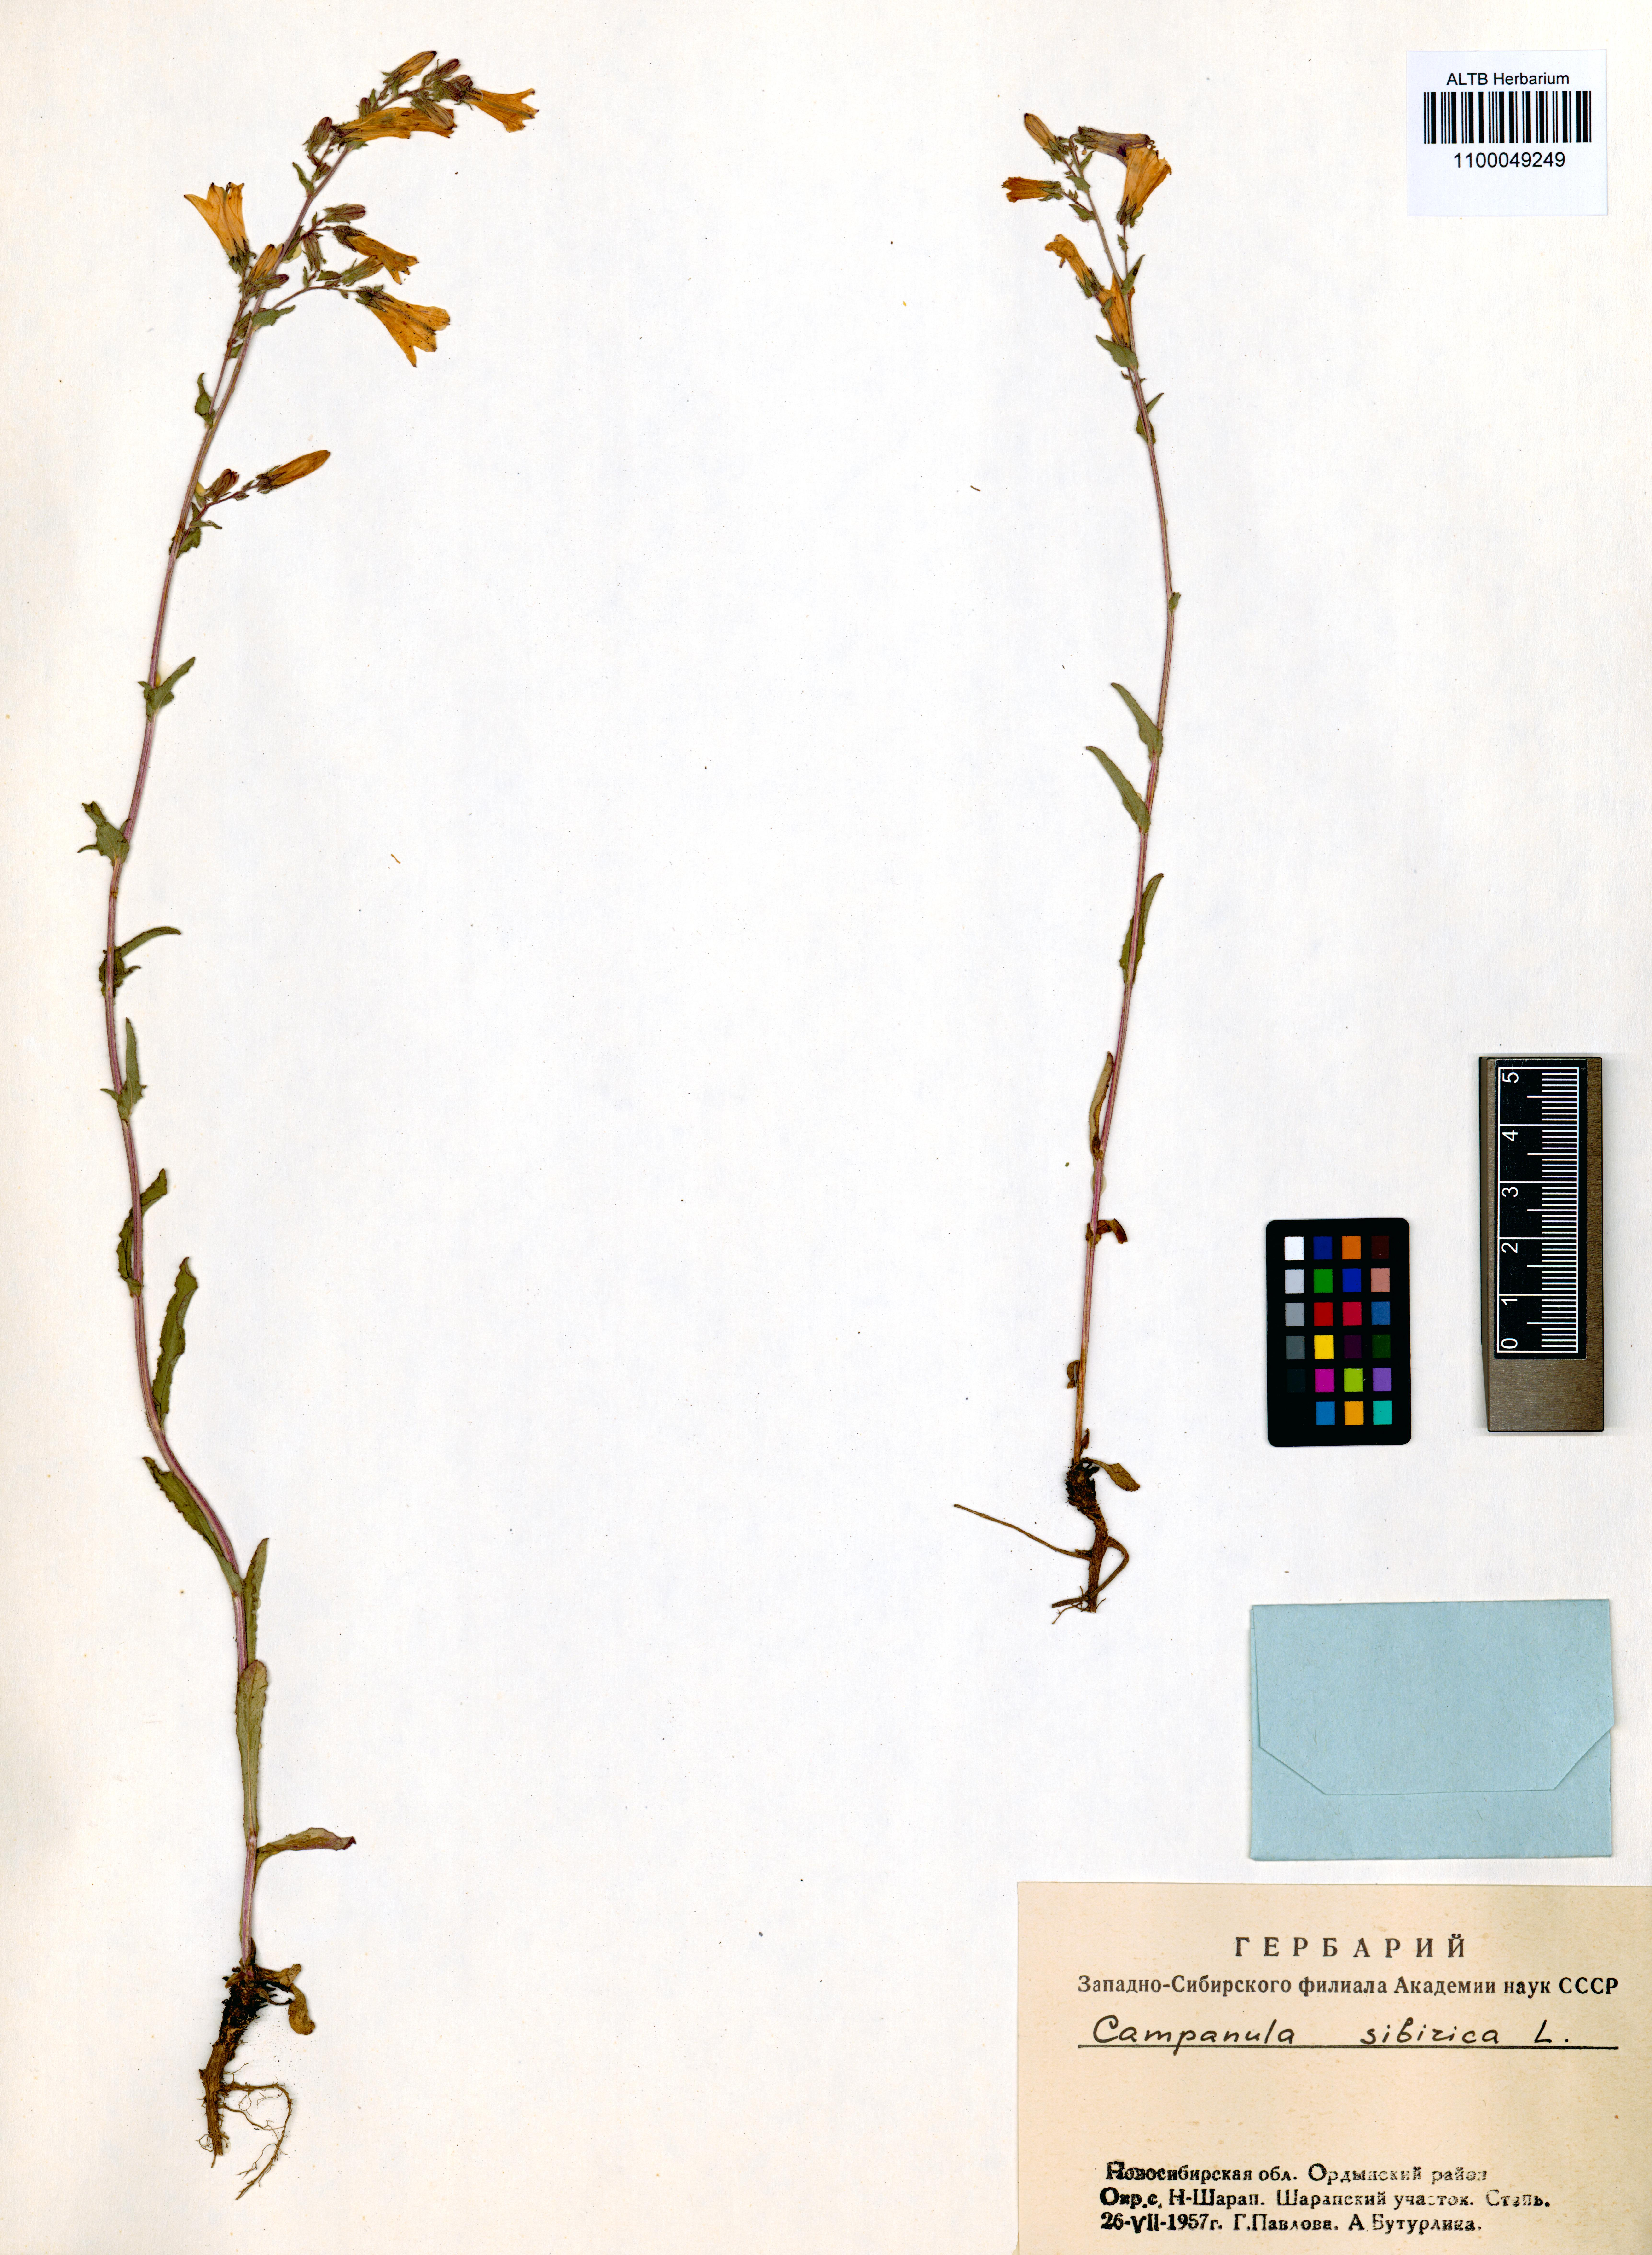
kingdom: Plantae
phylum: Tracheophyta
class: Magnoliopsida
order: Asterales
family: Campanulaceae
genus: Campanula
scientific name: Campanula sibirica
